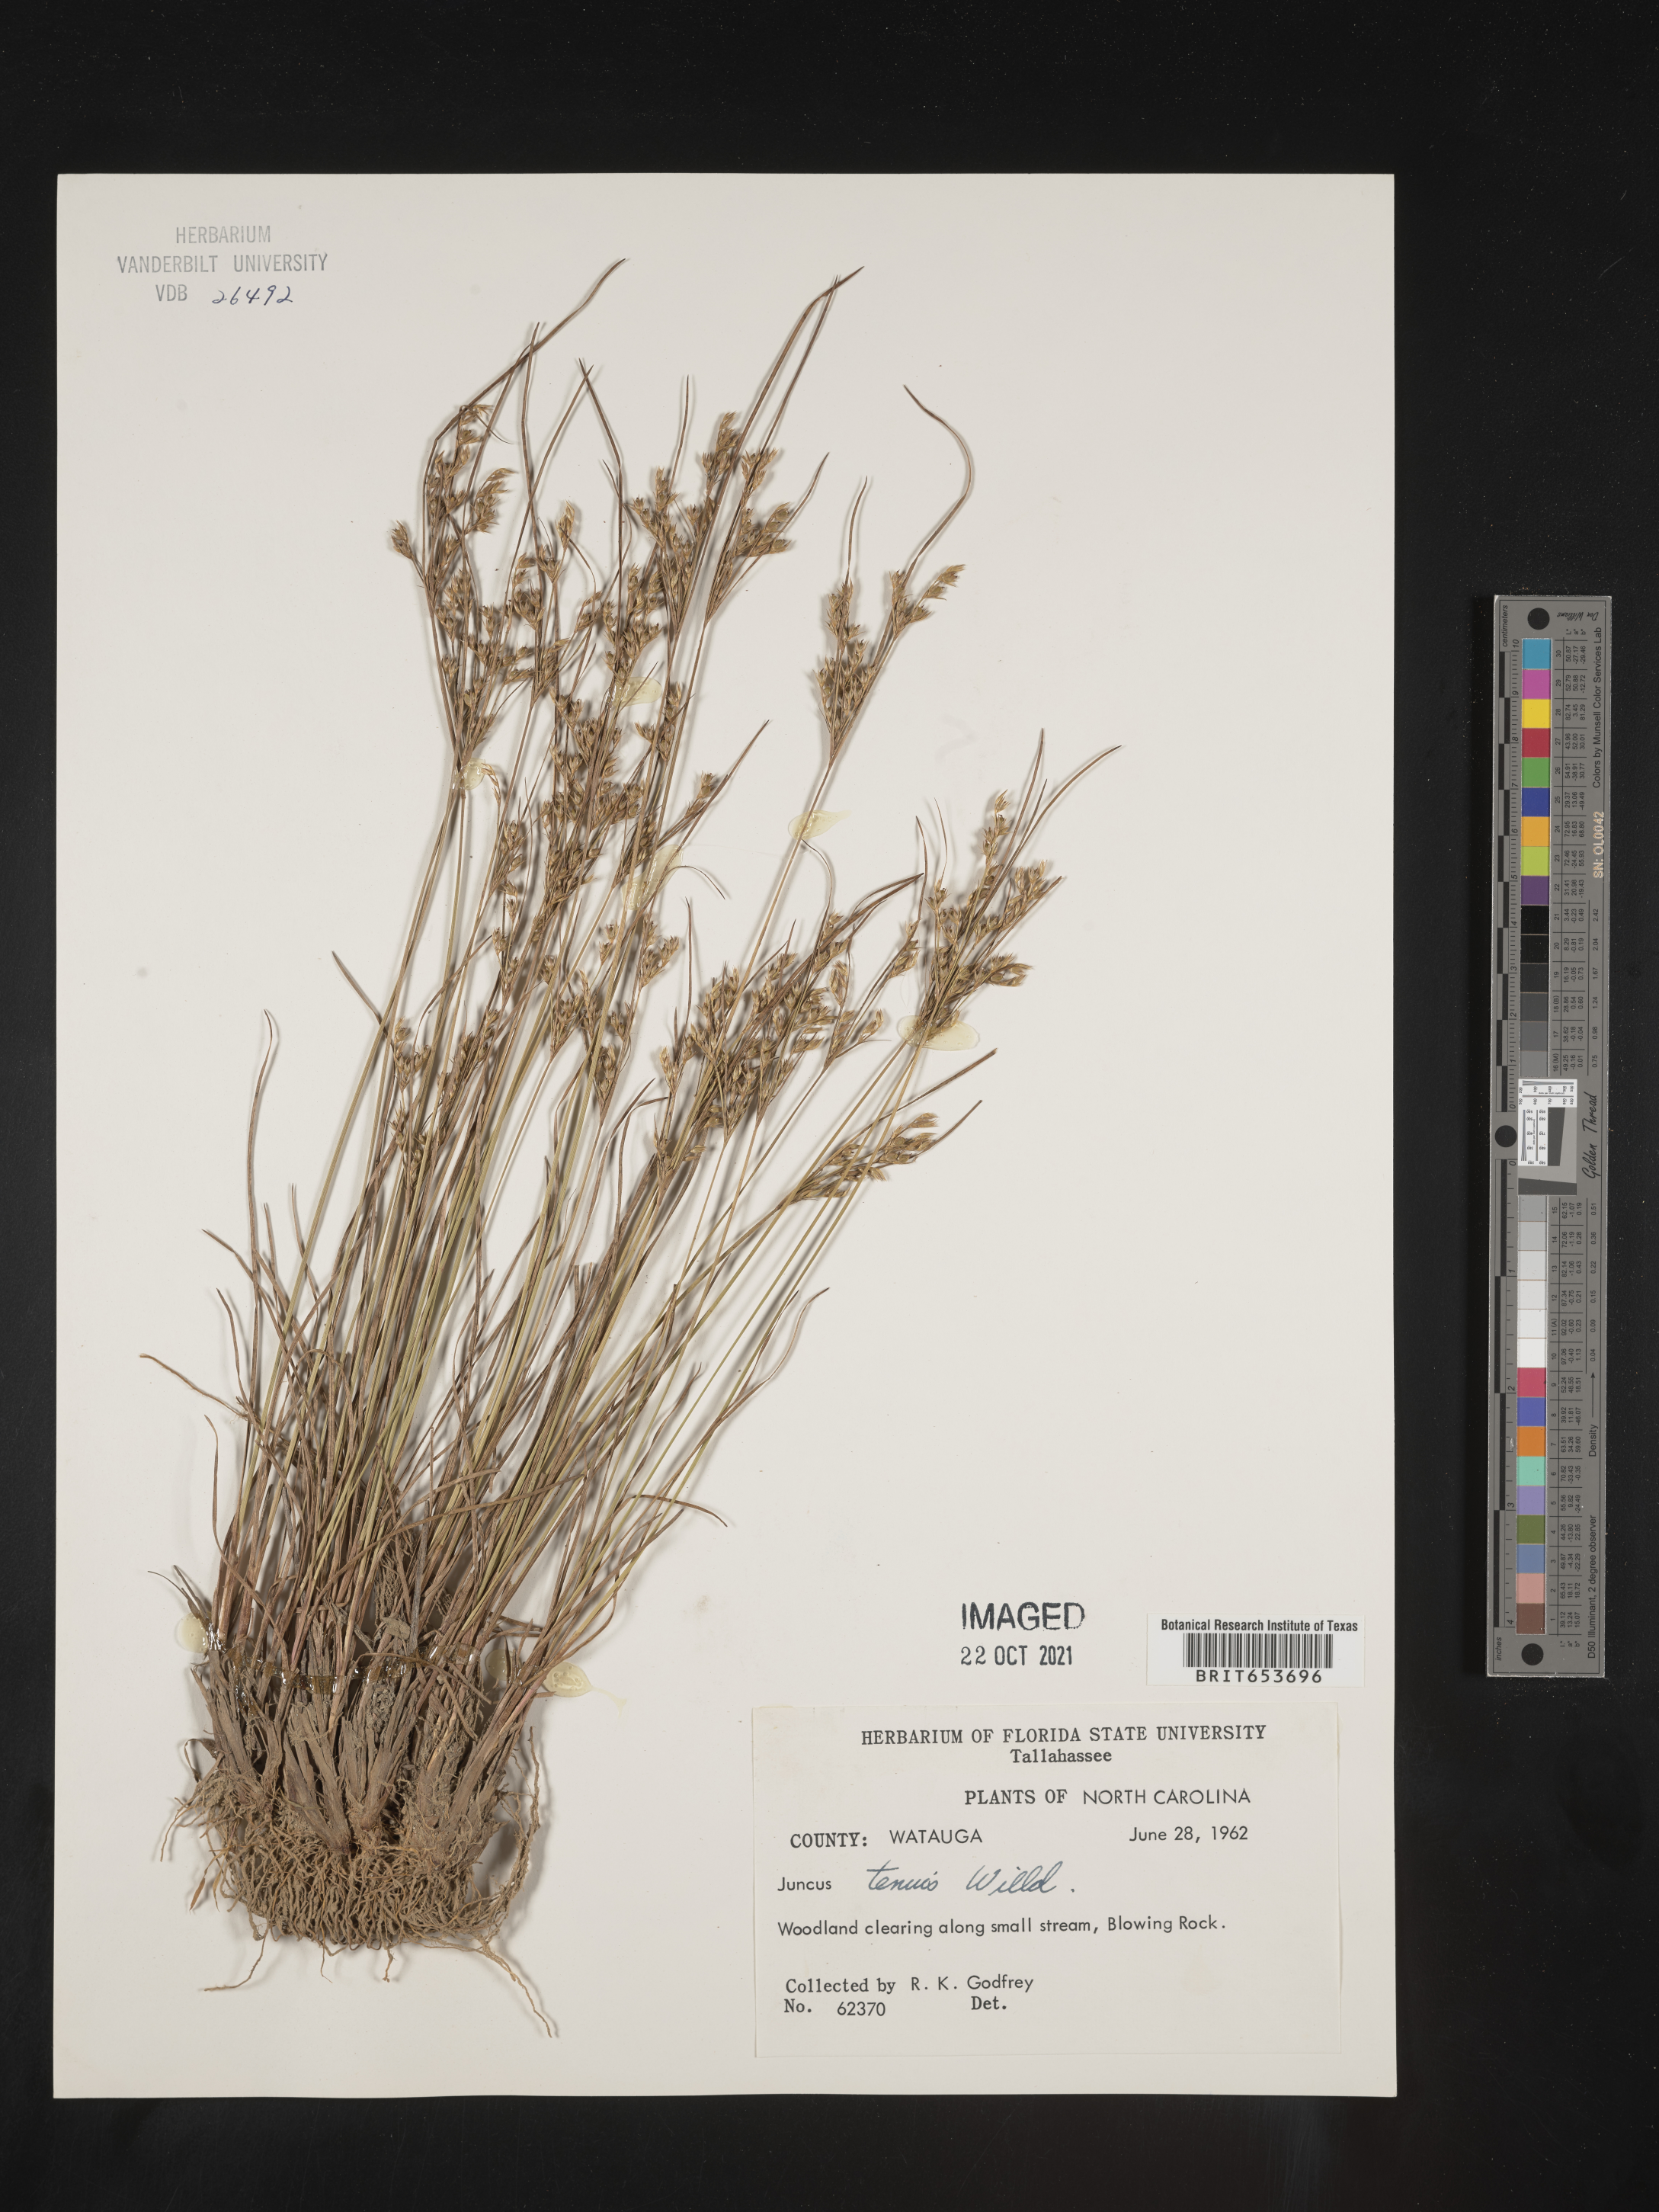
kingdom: Plantae
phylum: Tracheophyta
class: Liliopsida
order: Poales
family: Juncaceae
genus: Juncus
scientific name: Juncus tenuis
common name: Slender rush
